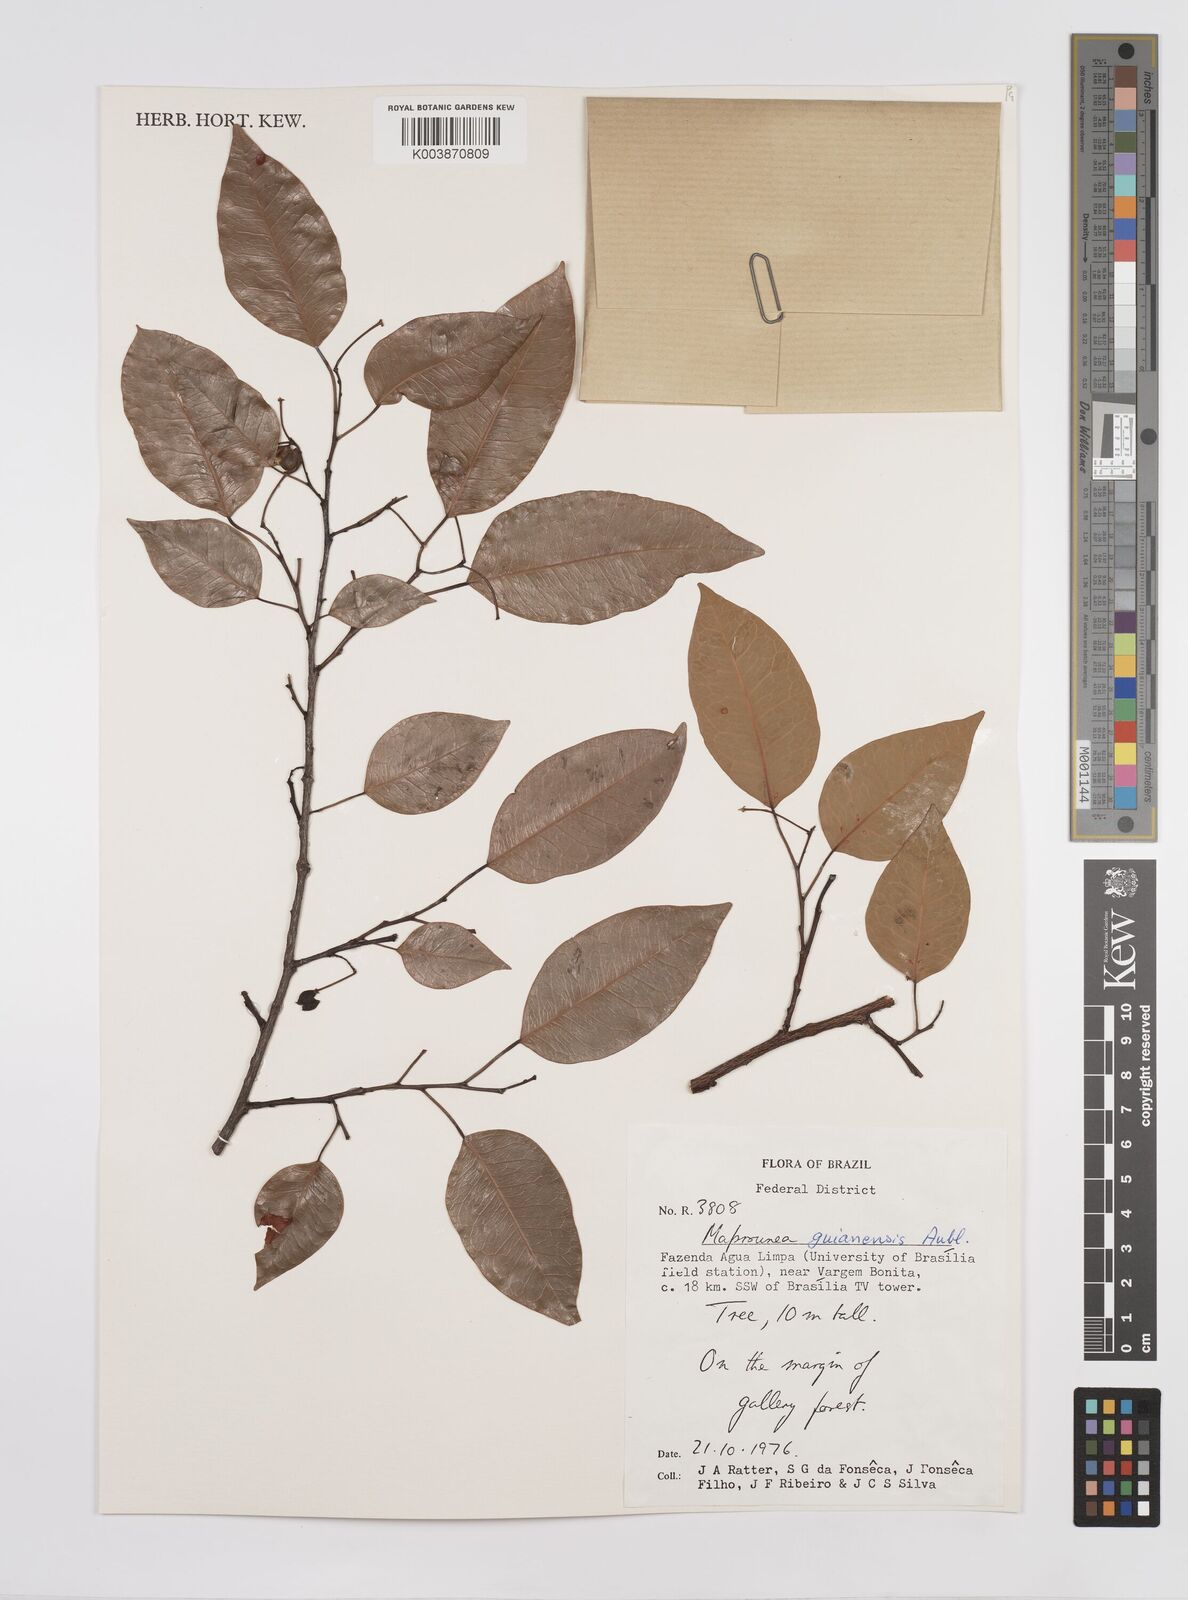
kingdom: Plantae
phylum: Tracheophyta
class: Magnoliopsida
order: Malpighiales
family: Euphorbiaceae
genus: Maprounea
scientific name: Maprounea guianensis
